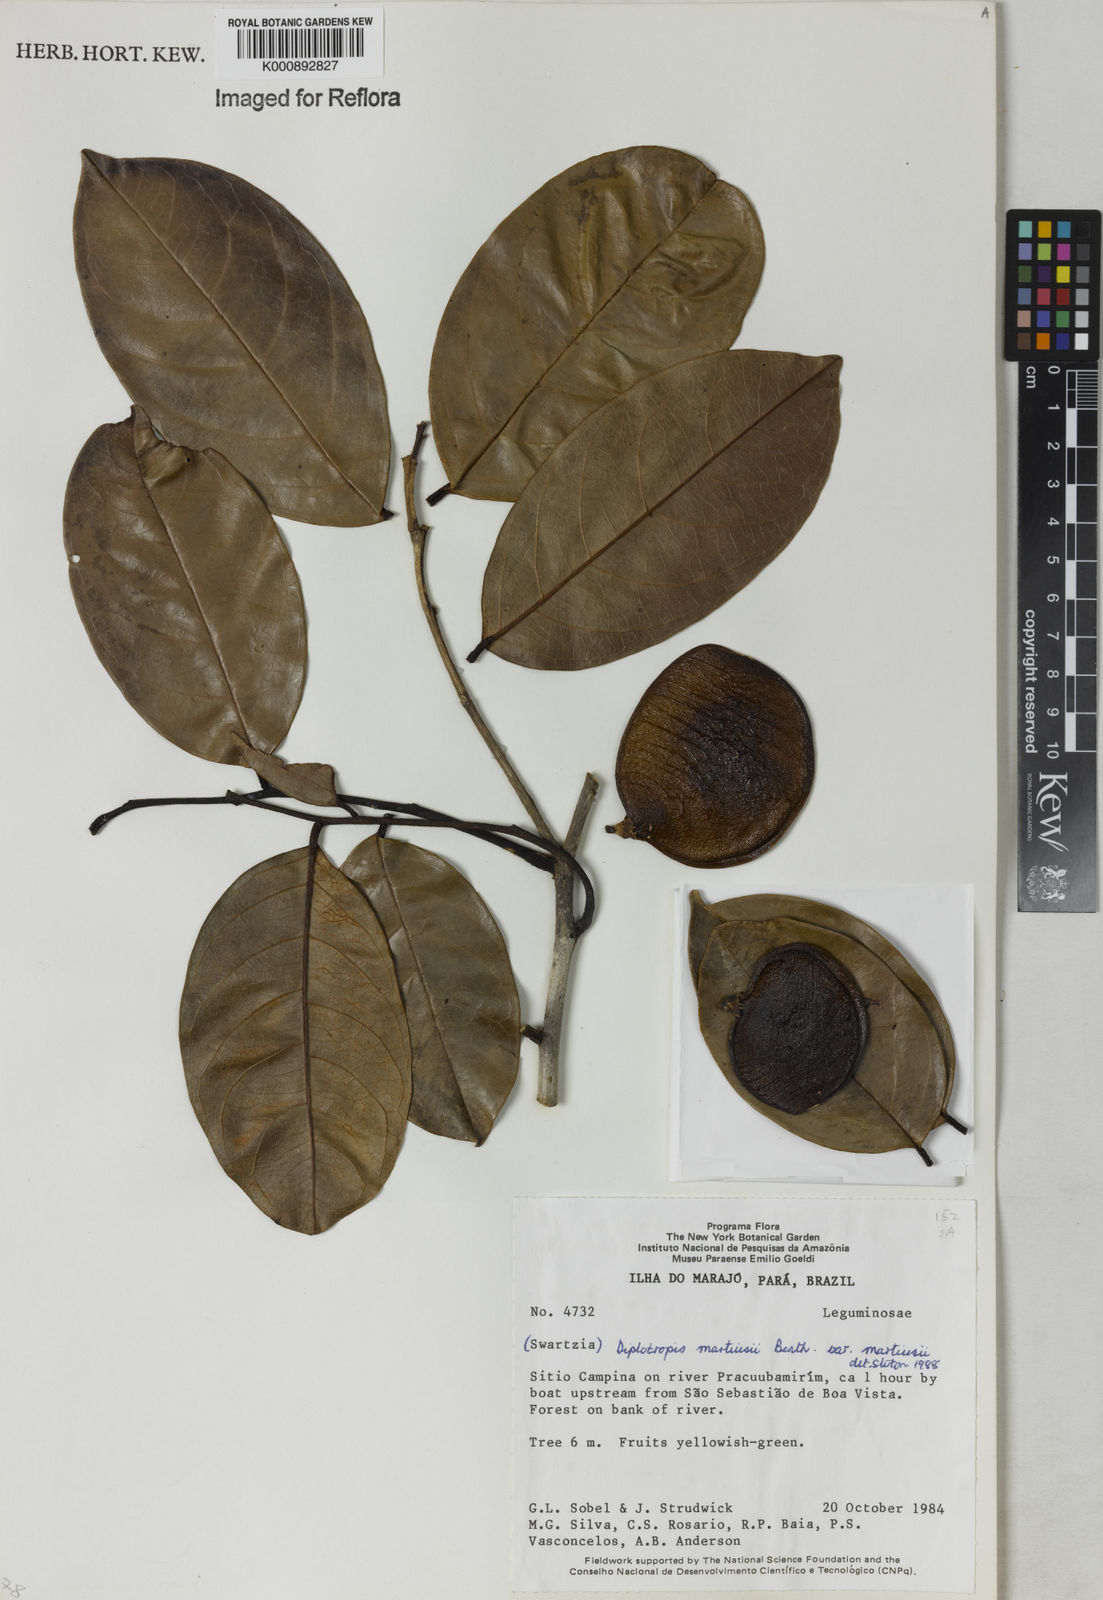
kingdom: Plantae
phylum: Tracheophyta
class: Magnoliopsida
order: Fabales
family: Fabaceae
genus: Diplotropis
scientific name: Diplotropis
